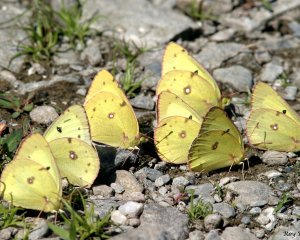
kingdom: Animalia
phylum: Arthropoda
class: Insecta
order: Lepidoptera
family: Pieridae
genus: Colias
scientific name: Colias philodice
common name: Clouded Sulphur
